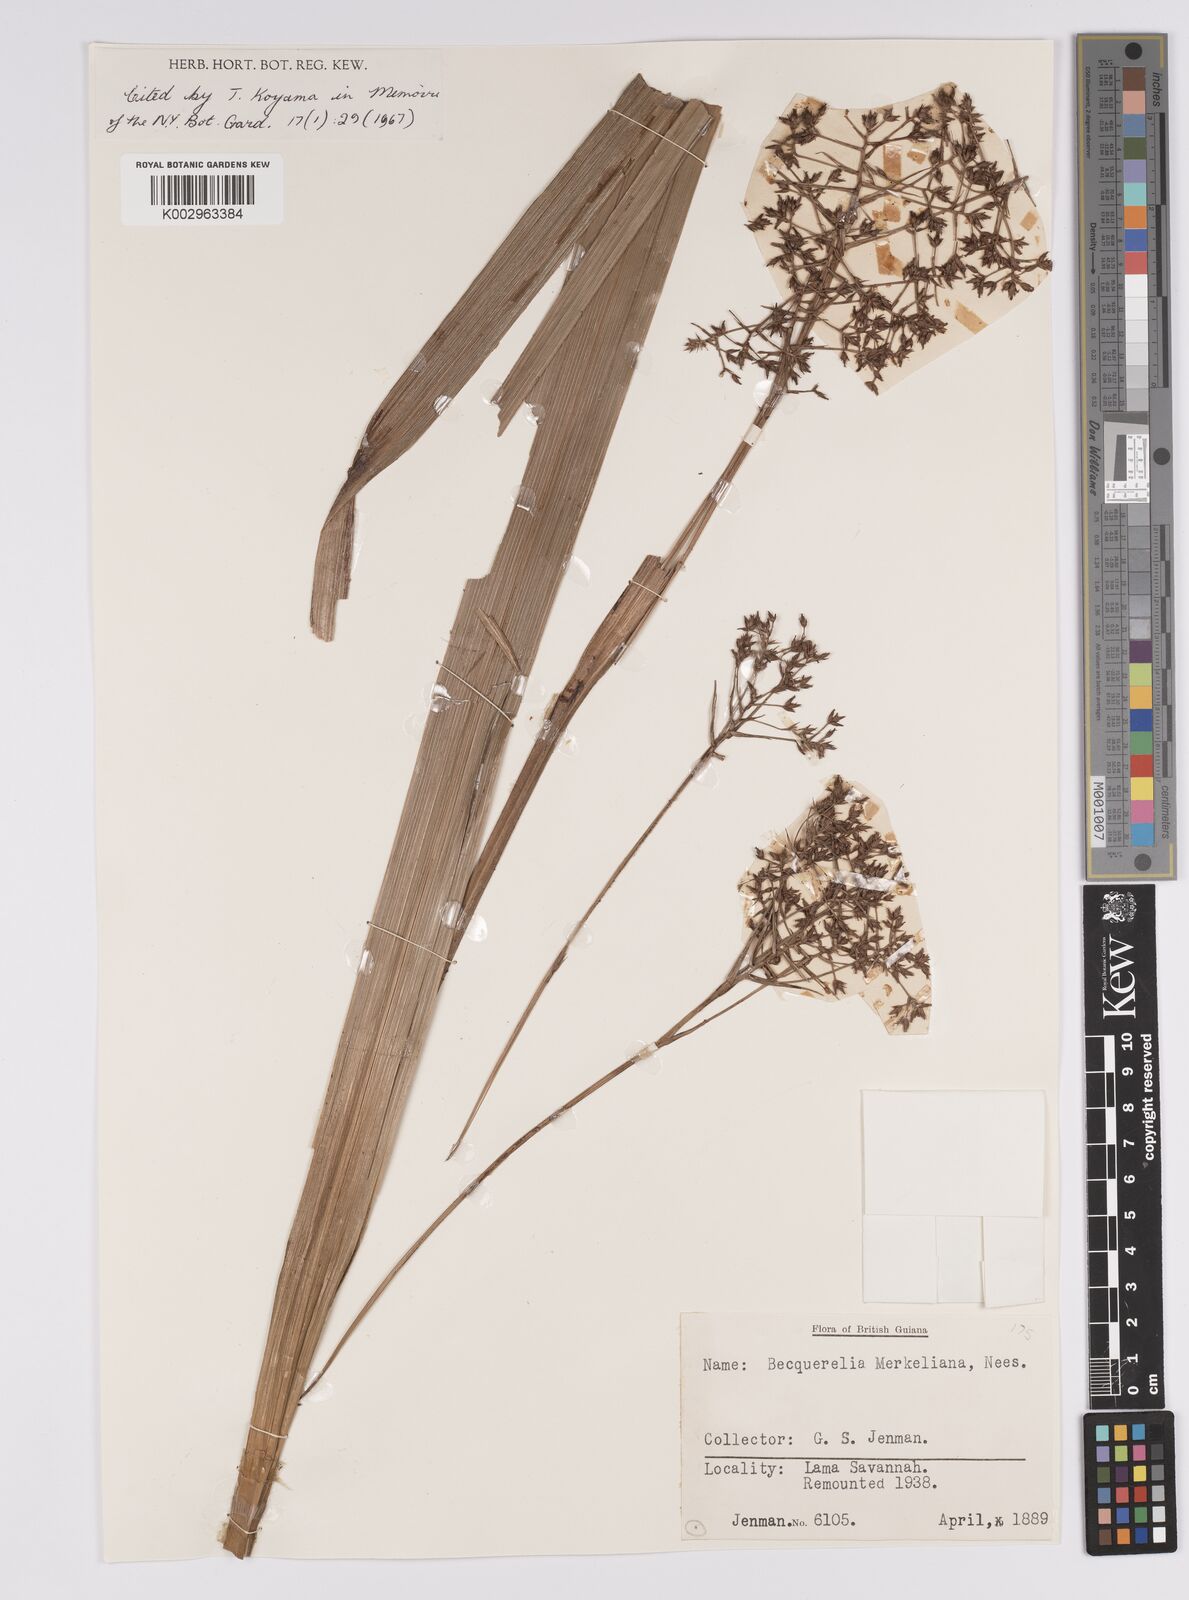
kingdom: Plantae
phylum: Tracheophyta
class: Liliopsida
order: Poales
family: Cyperaceae
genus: Becquerelia
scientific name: Becquerelia merkeliana
